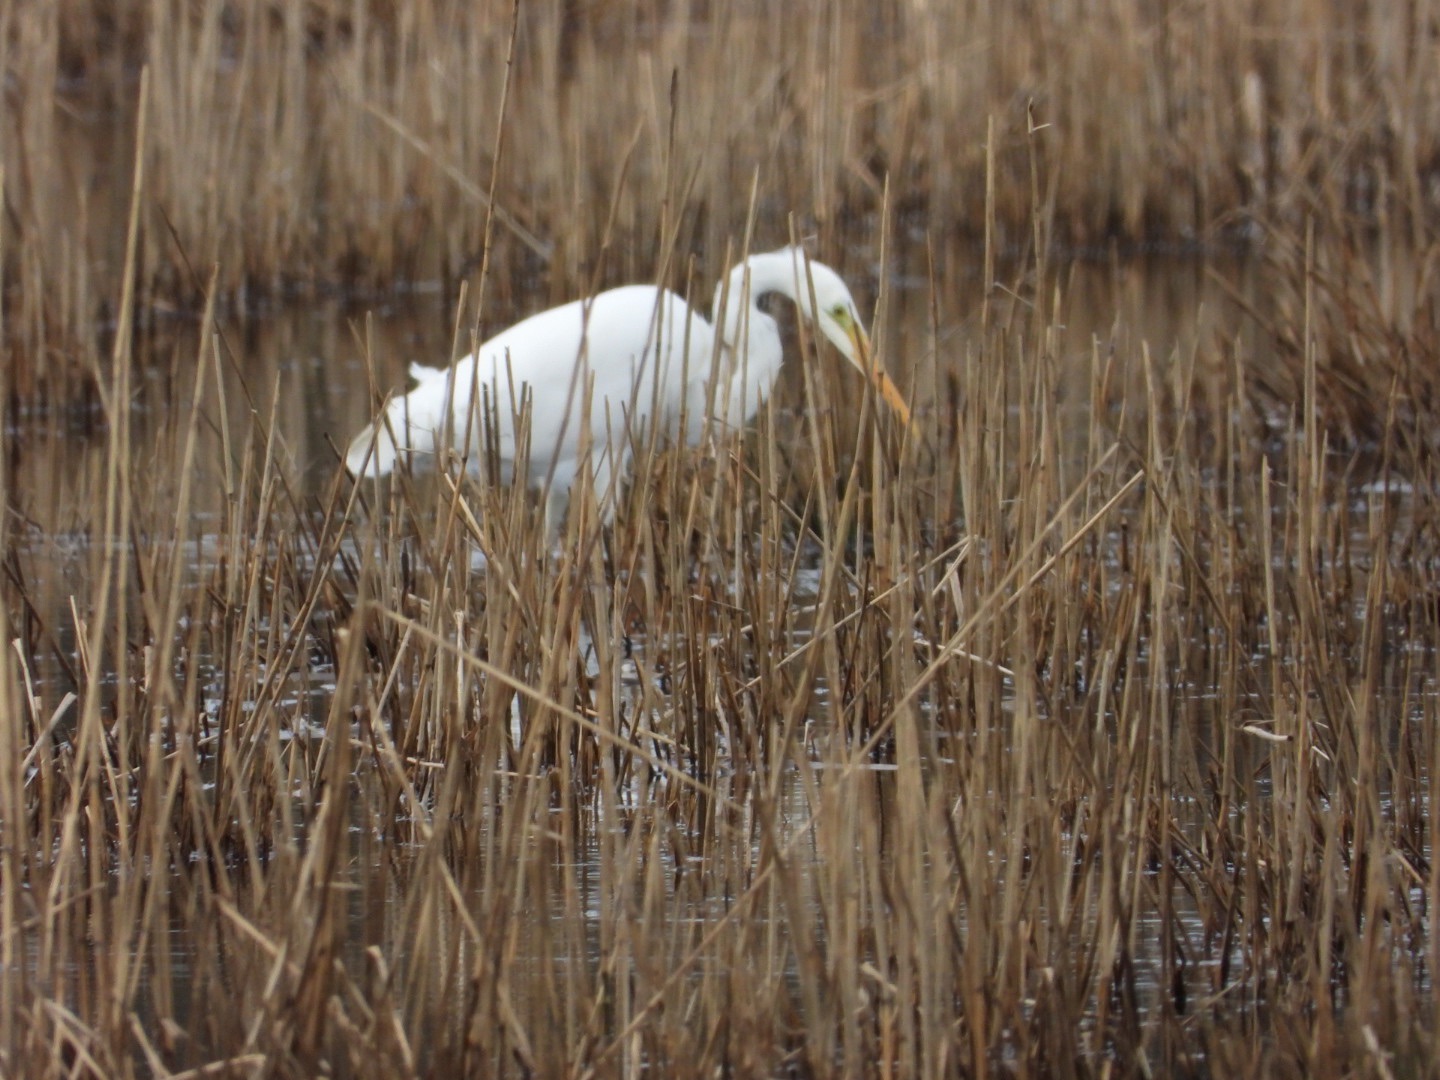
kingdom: Animalia
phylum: Chordata
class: Aves
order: Pelecaniformes
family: Ardeidae
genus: Ardea
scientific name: Ardea alba
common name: Sølvhejre
